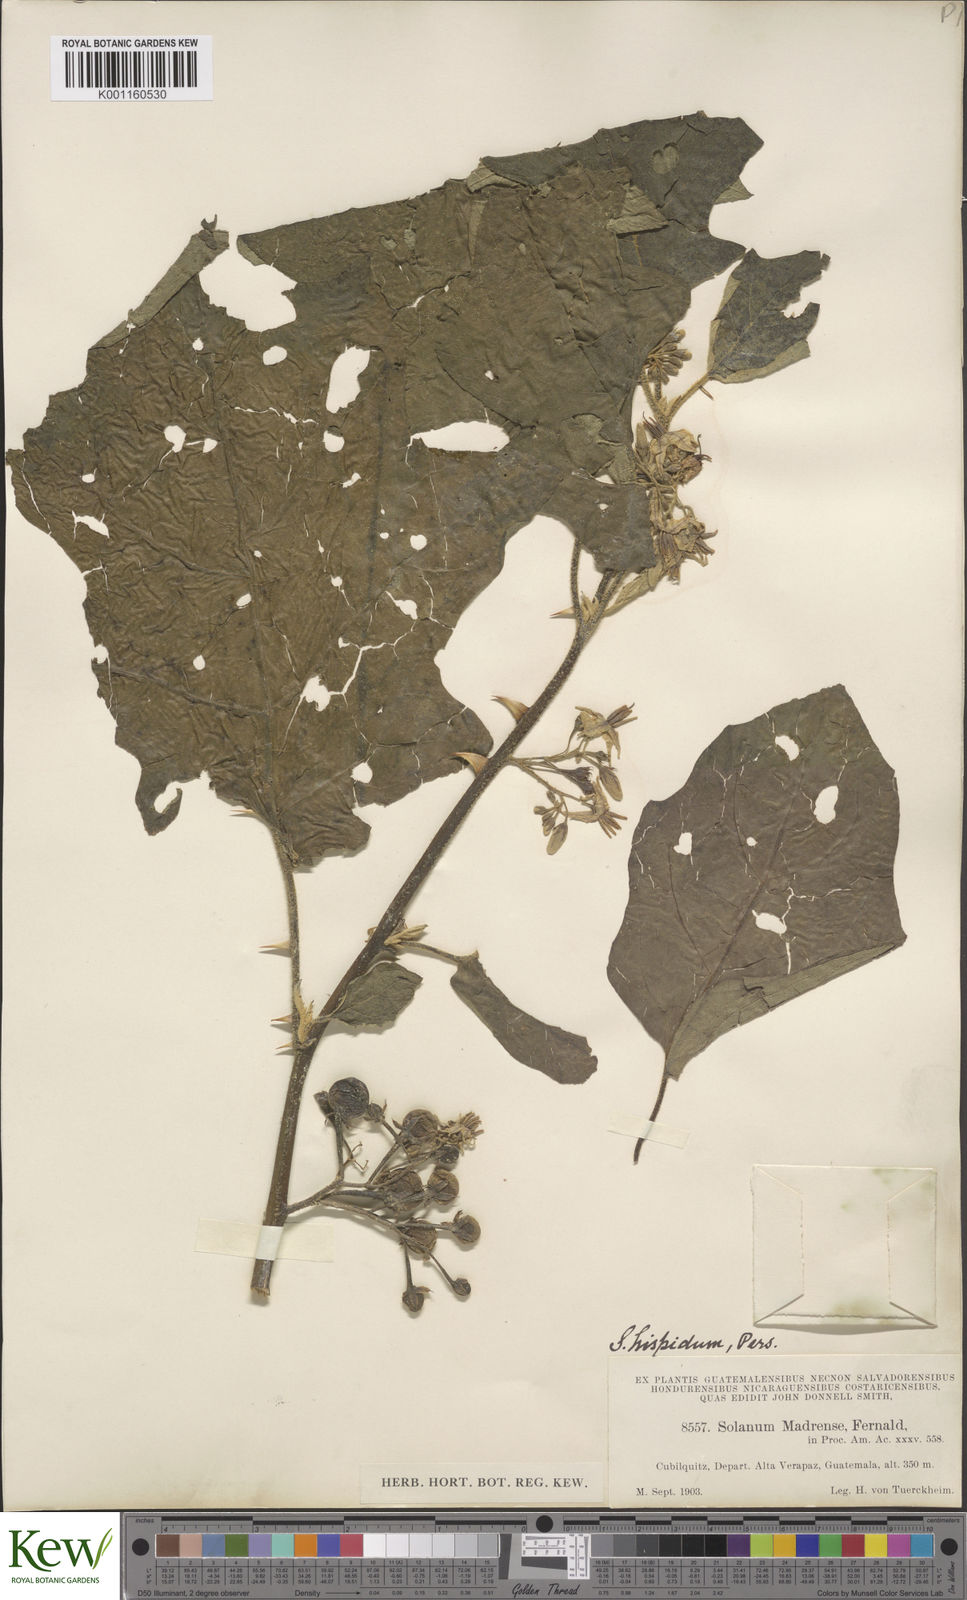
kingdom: Plantae
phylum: Tracheophyta
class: Magnoliopsida
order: Solanales
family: Solanaceae
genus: Solanum
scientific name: Solanum ferrugineum
